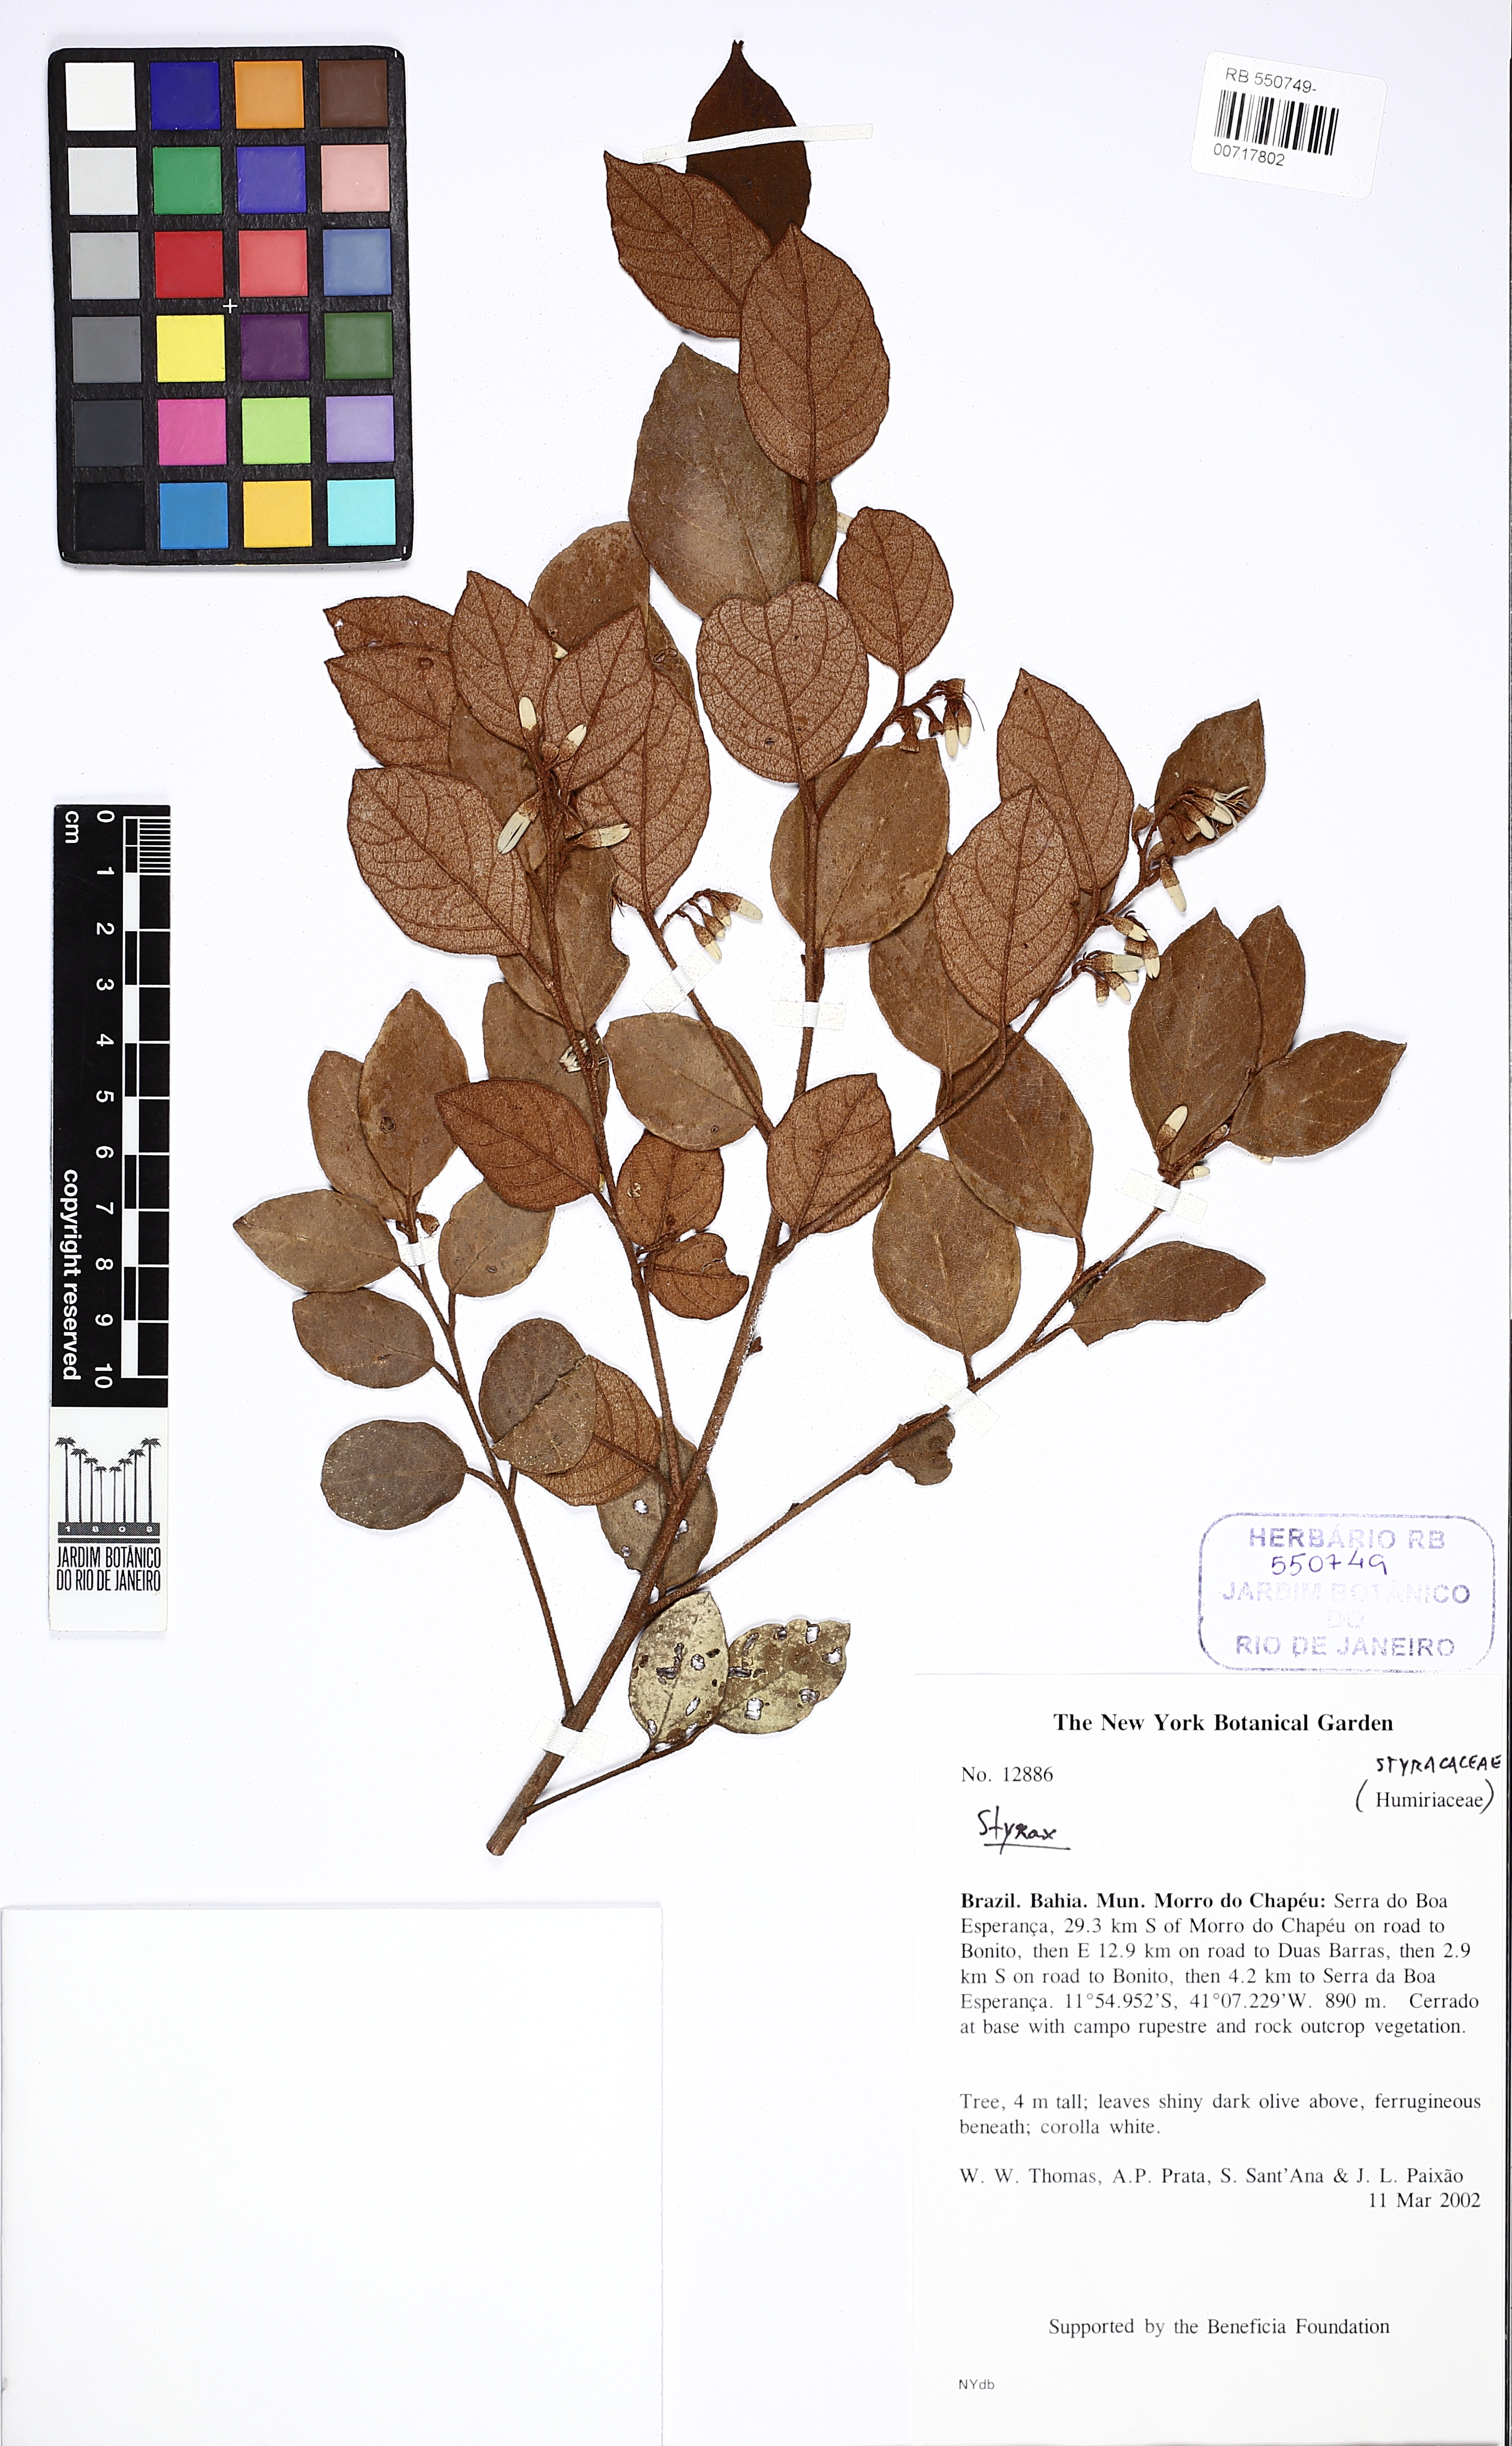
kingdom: Plantae
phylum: Tracheophyta
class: Magnoliopsida
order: Ericales
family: Styracaceae
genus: Styrax
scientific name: Styrax
